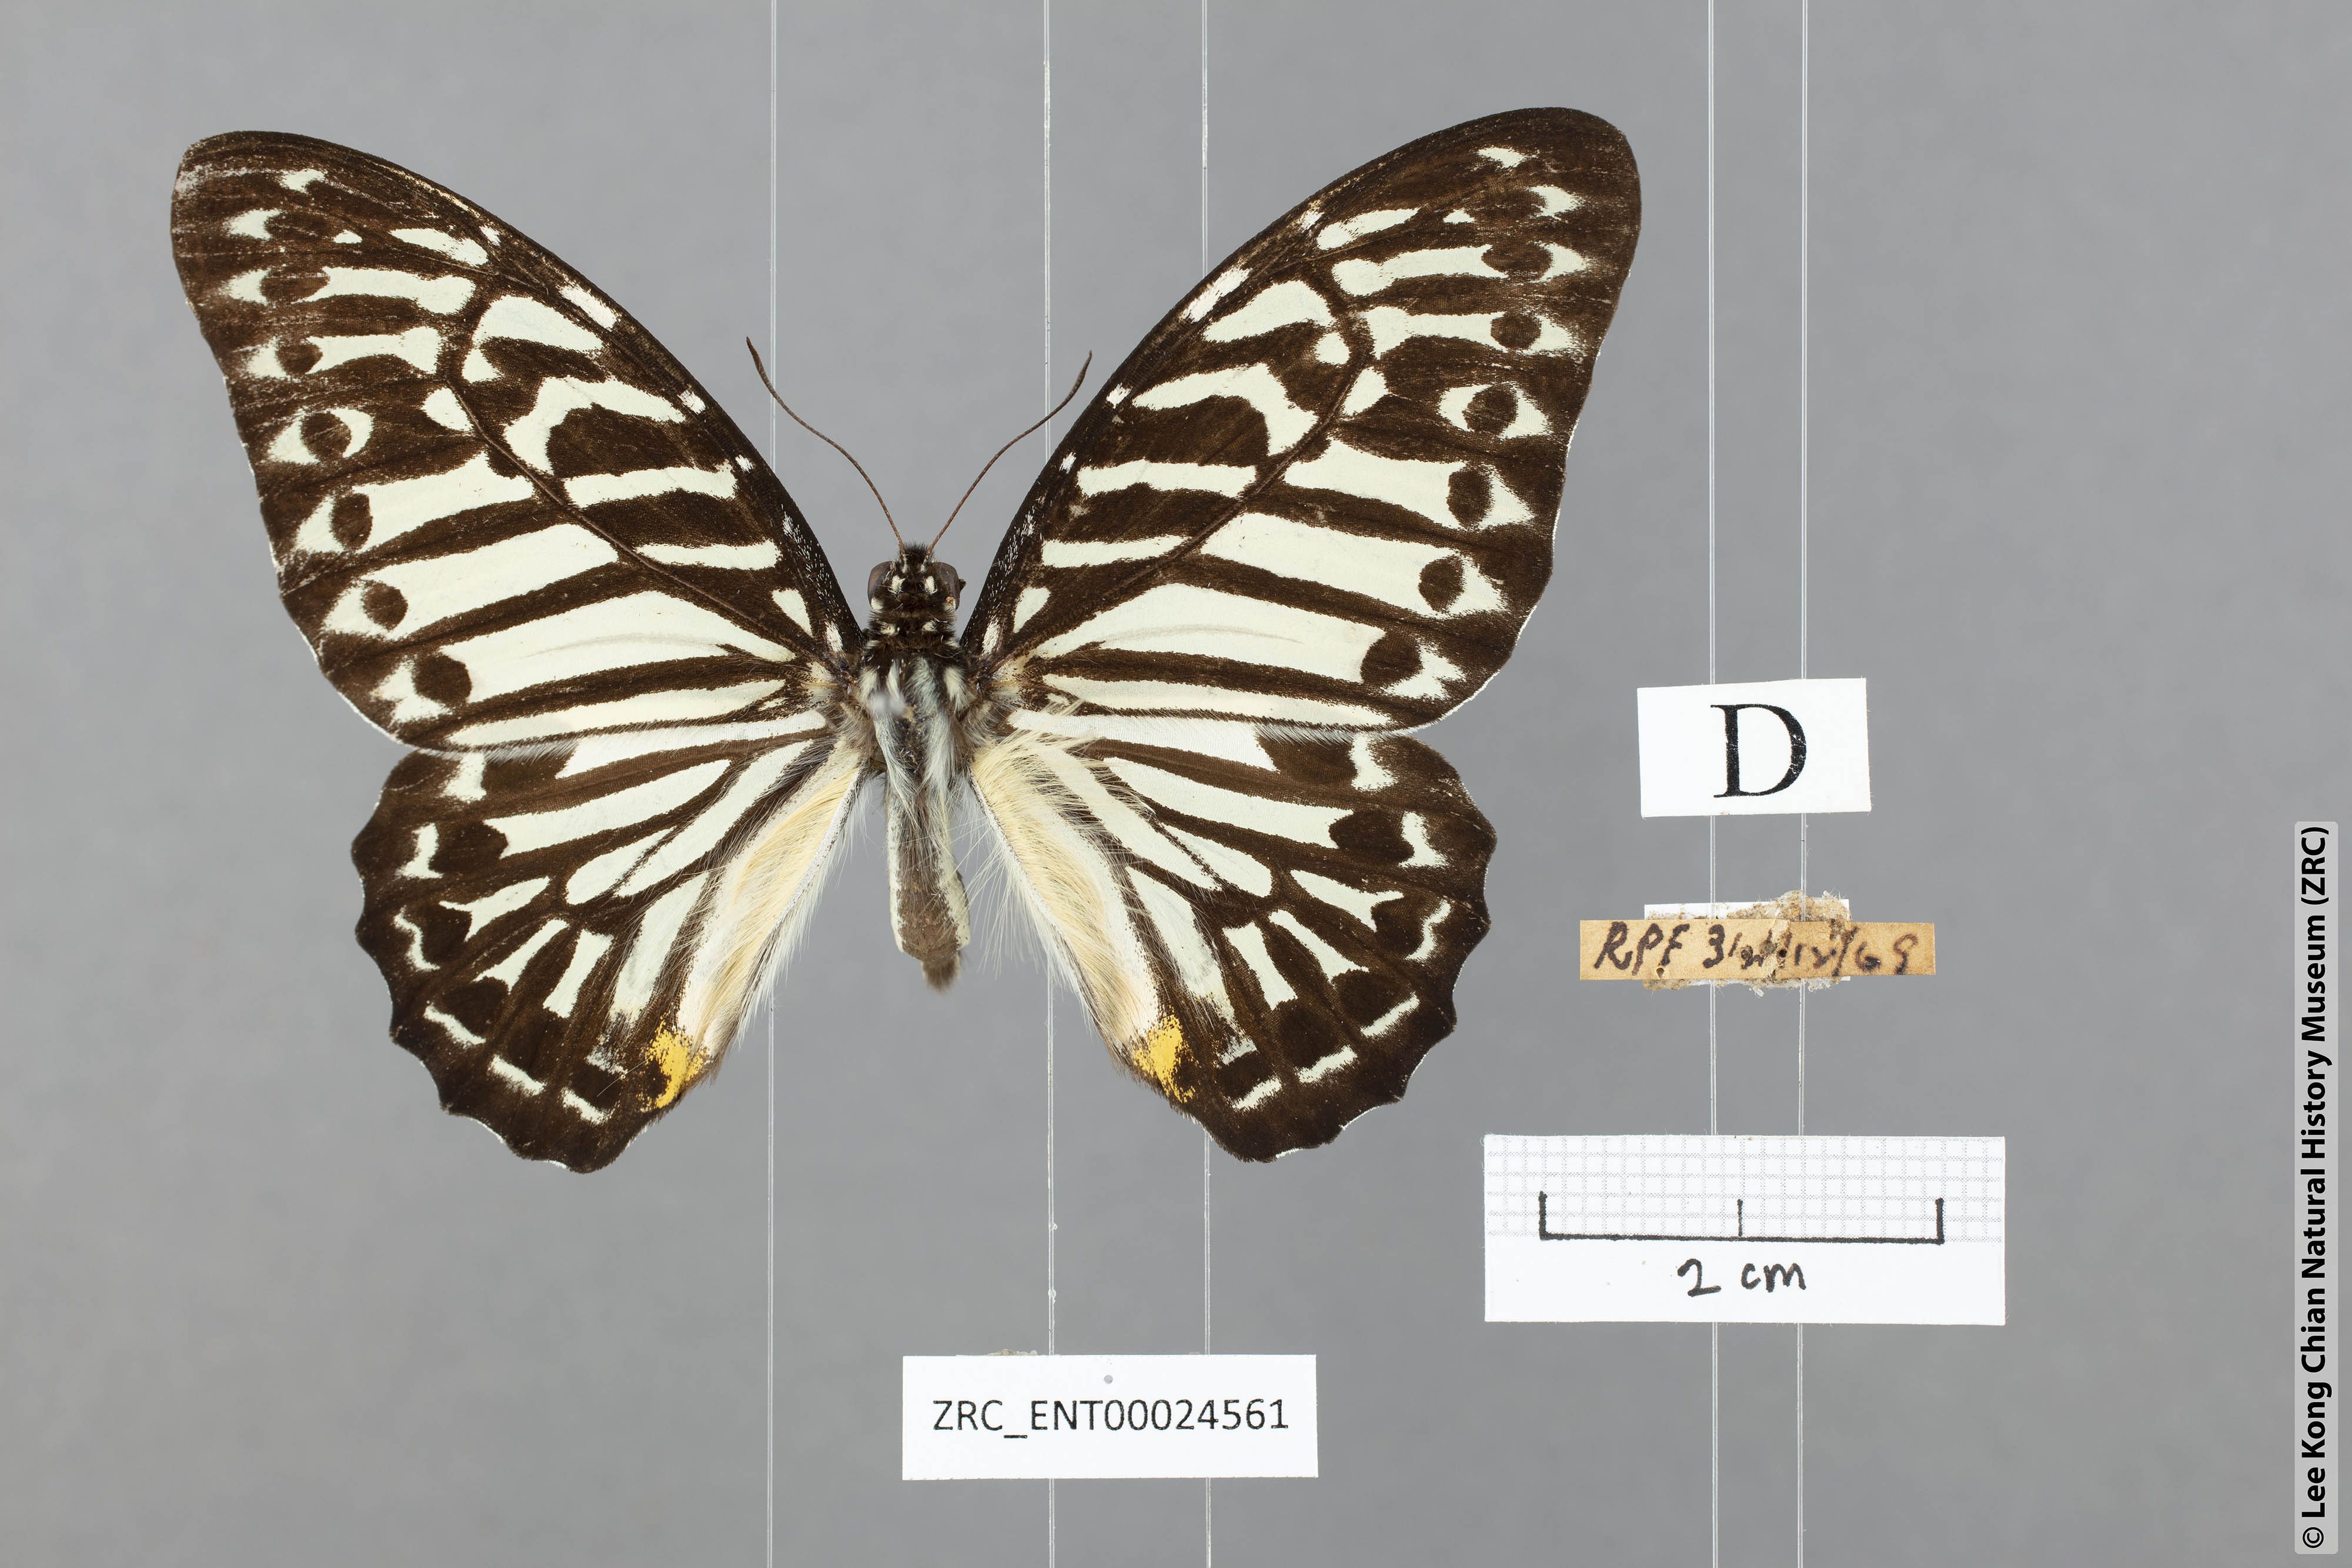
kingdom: Animalia
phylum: Arthropoda
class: Insecta
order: Lepidoptera
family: Papilionidae
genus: Graphium
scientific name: Graphium delesserti
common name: Malayan zebra
